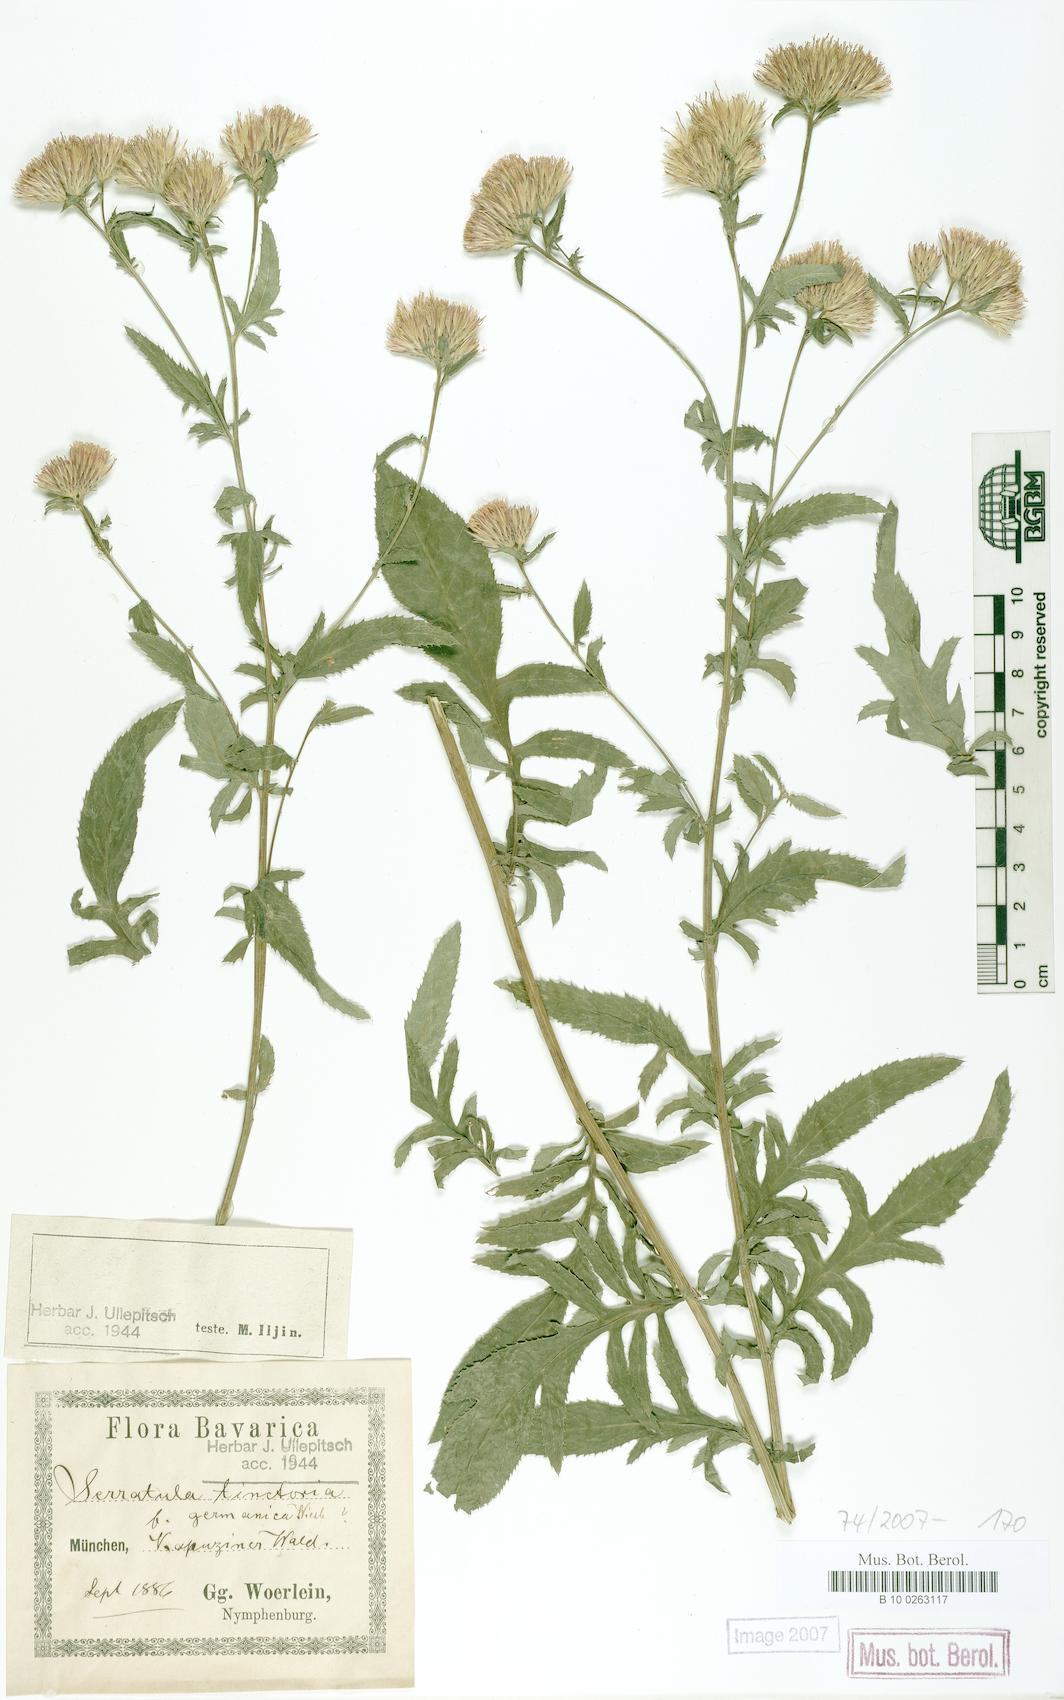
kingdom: Plantae
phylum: Tracheophyta
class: Magnoliopsida
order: Asterales
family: Asteraceae
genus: Serratula
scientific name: Serratula tinctoria
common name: Saw-wort
